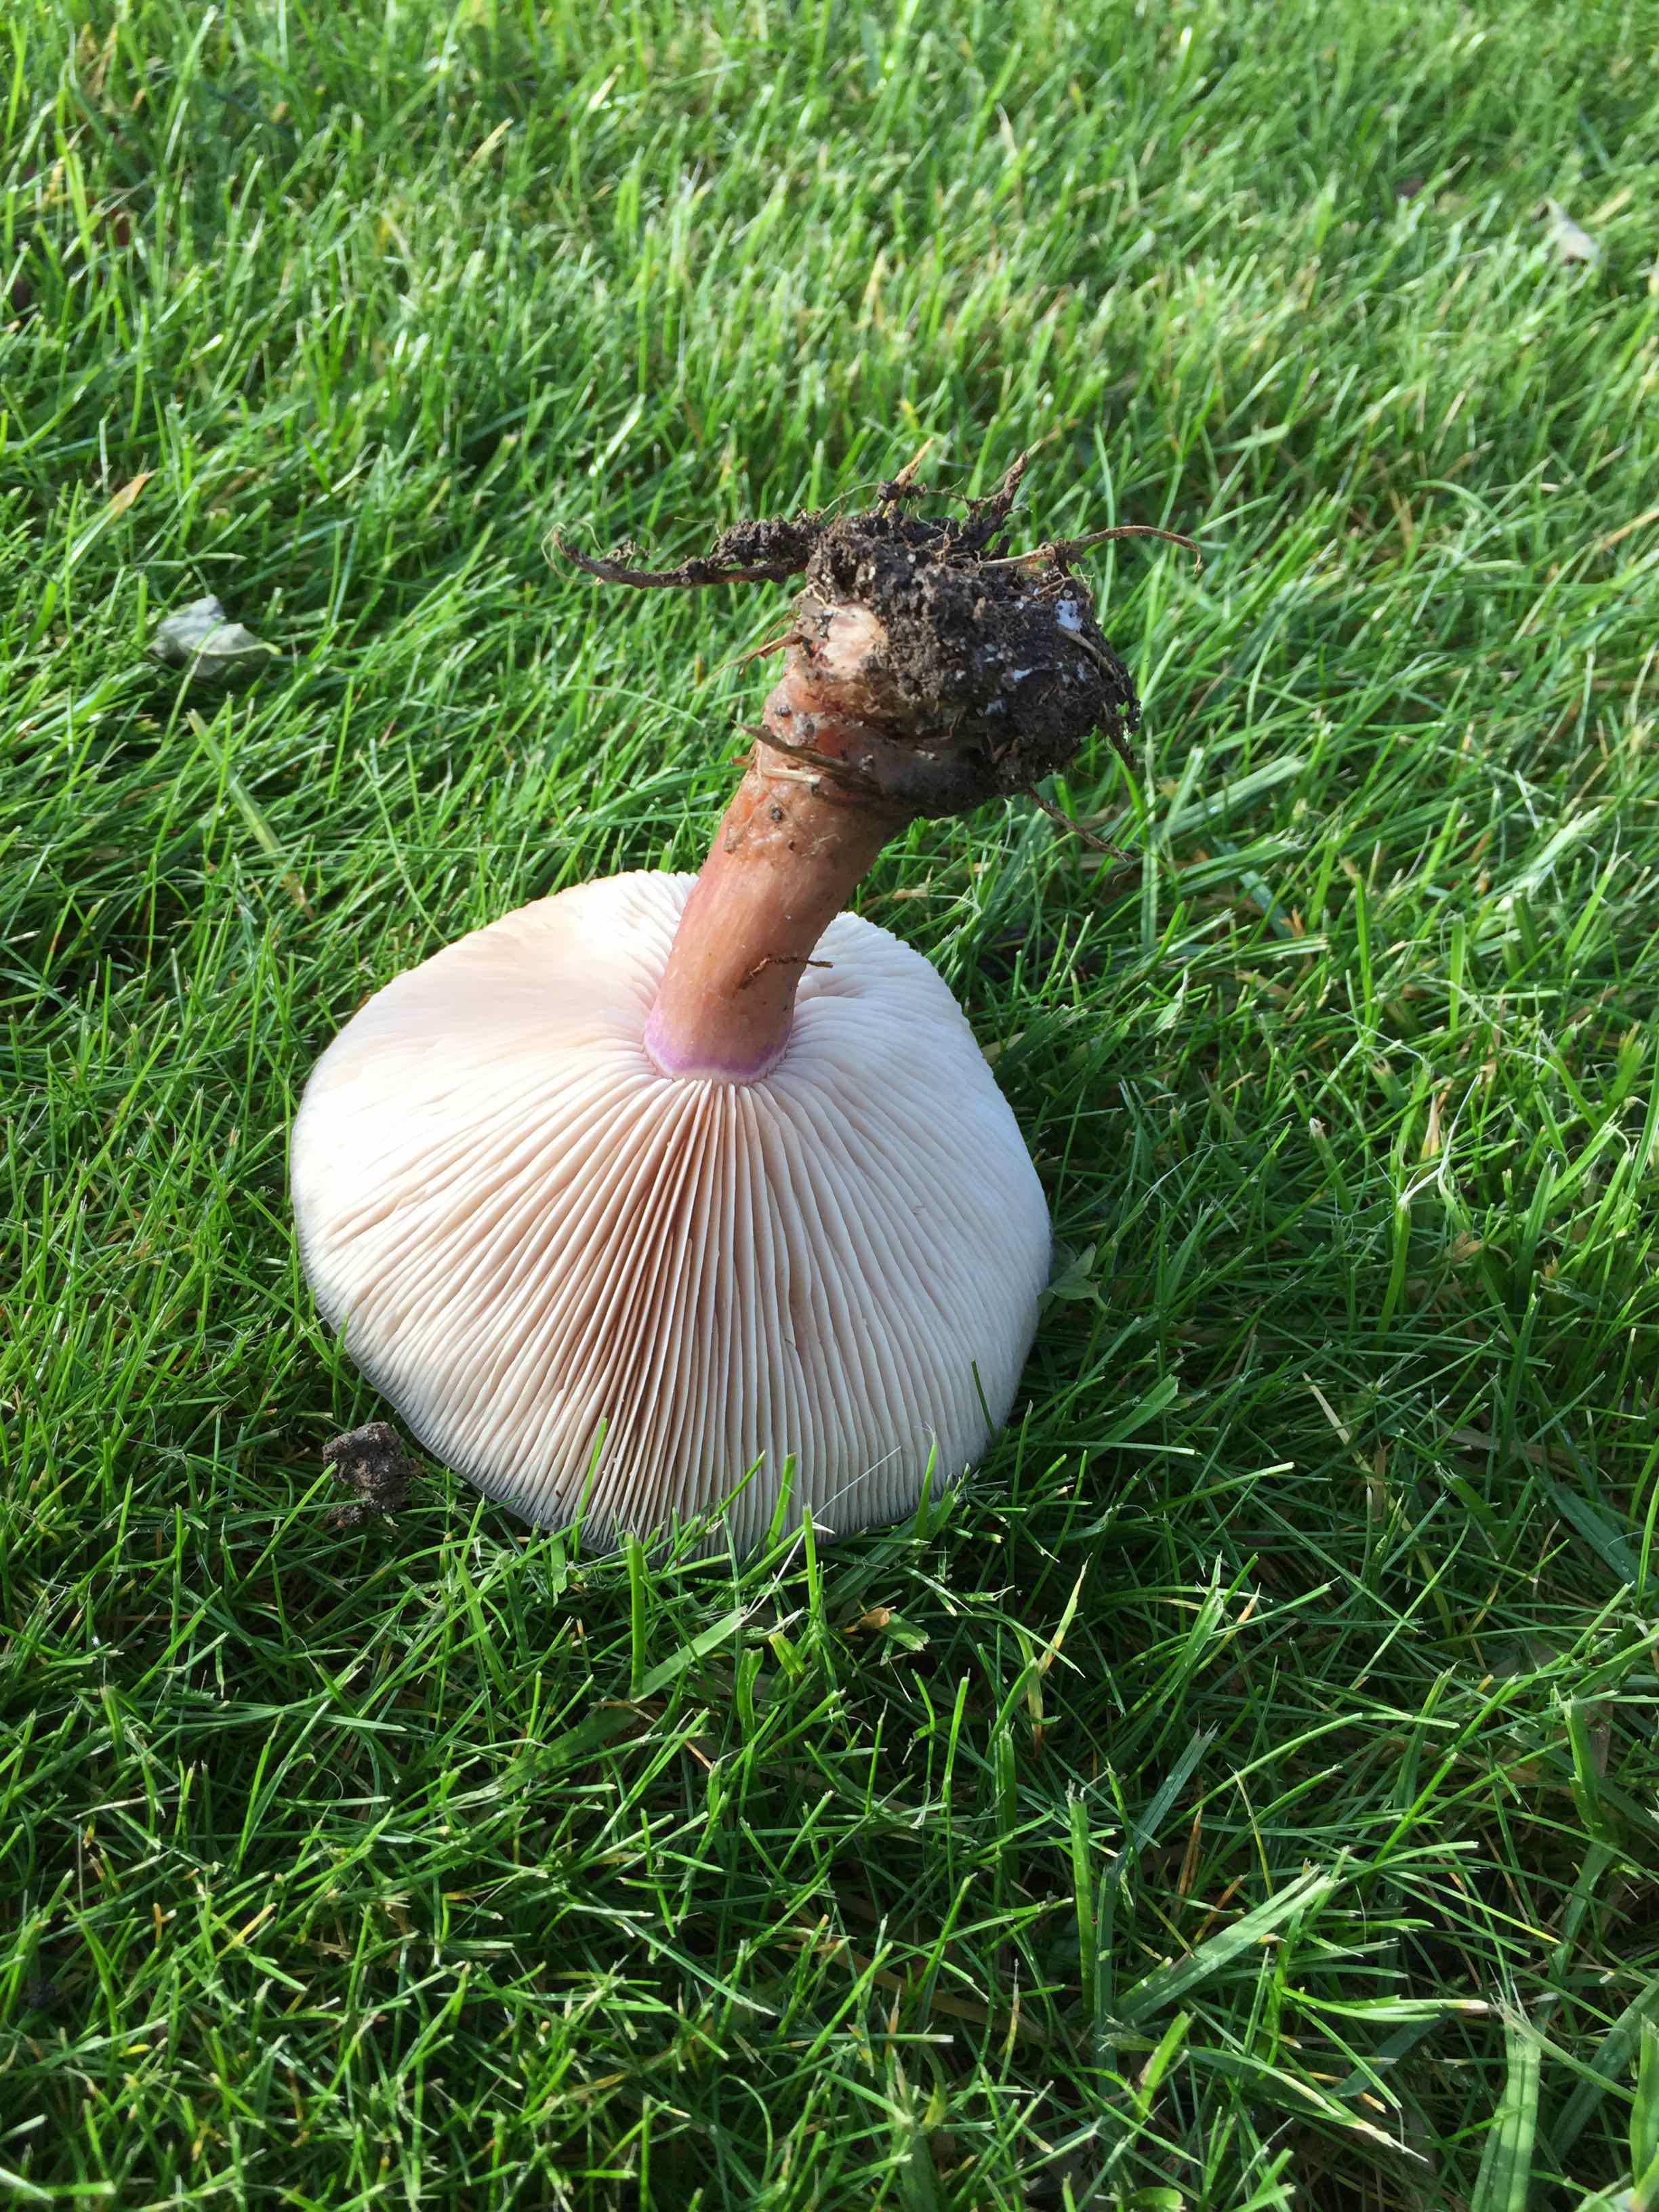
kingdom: Fungi
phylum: Basidiomycota
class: Agaricomycetes
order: Agaricales
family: Tricholomataceae
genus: Lepista
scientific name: Lepista personata
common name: bleg hekseringshat
